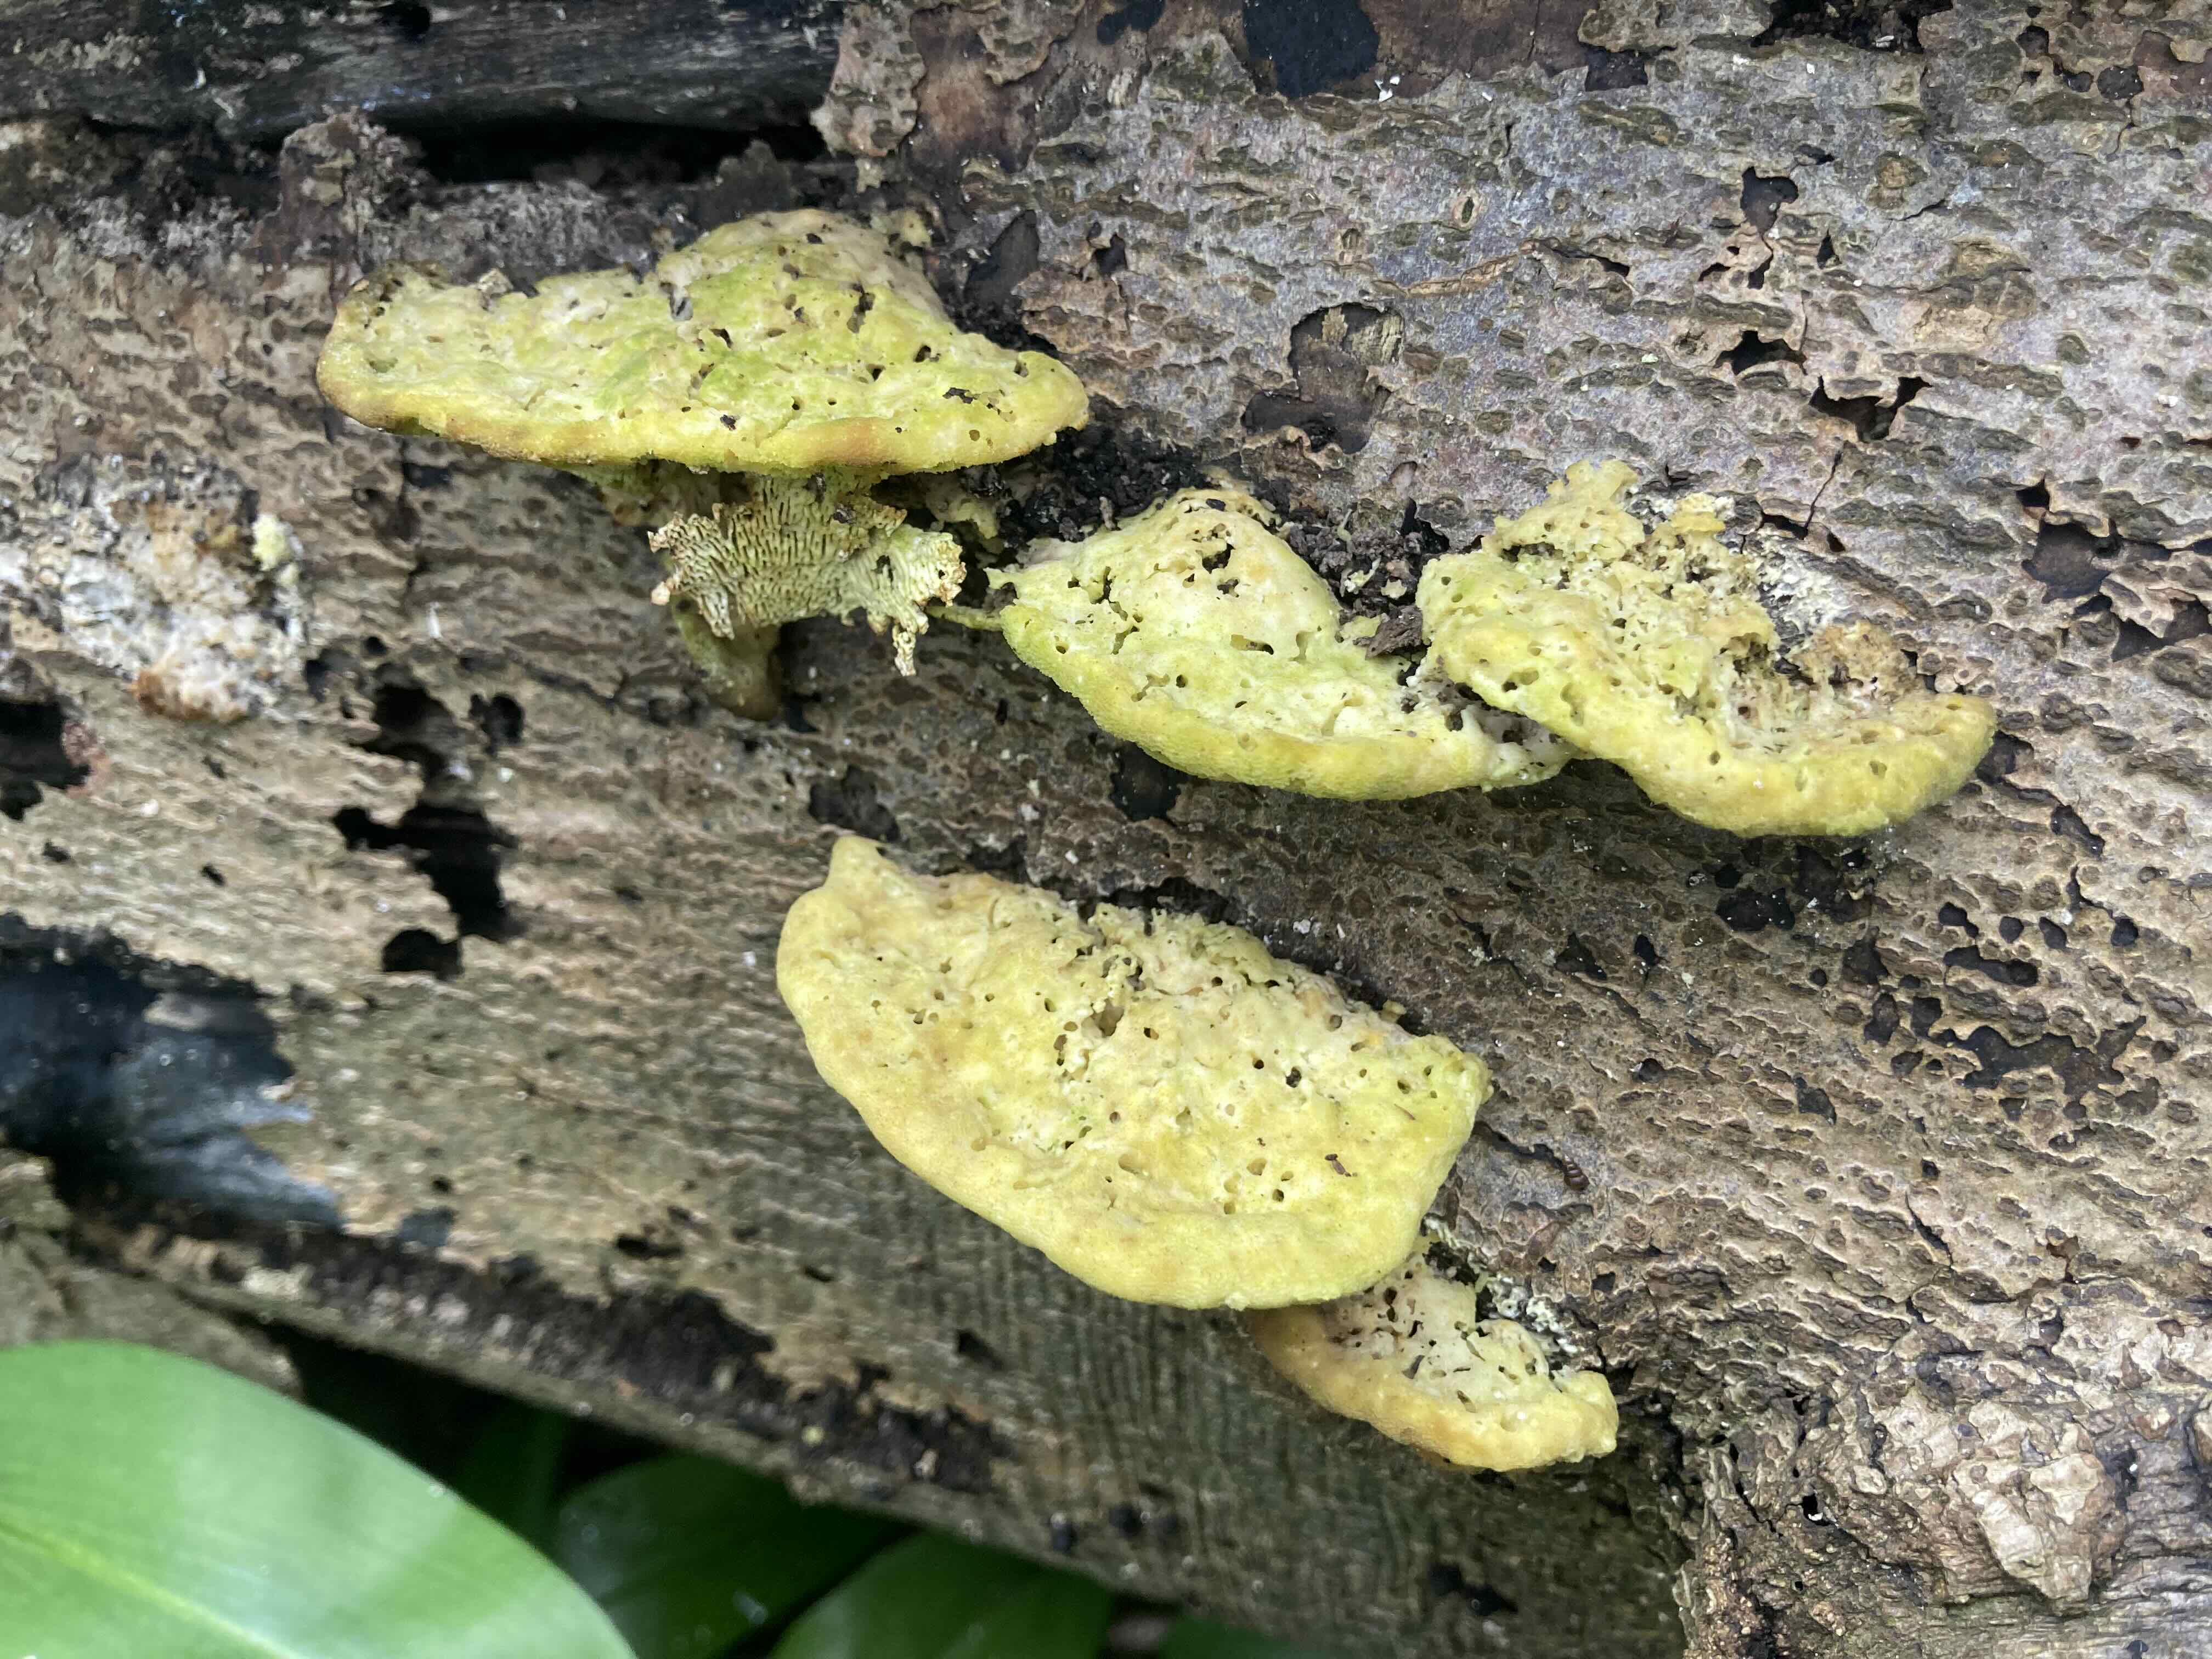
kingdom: Fungi
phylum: Basidiomycota
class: Agaricomycetes
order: Polyporales
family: Polyporaceae
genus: Trametes
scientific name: Trametes gibbosa
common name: puklet læderporesvamp
